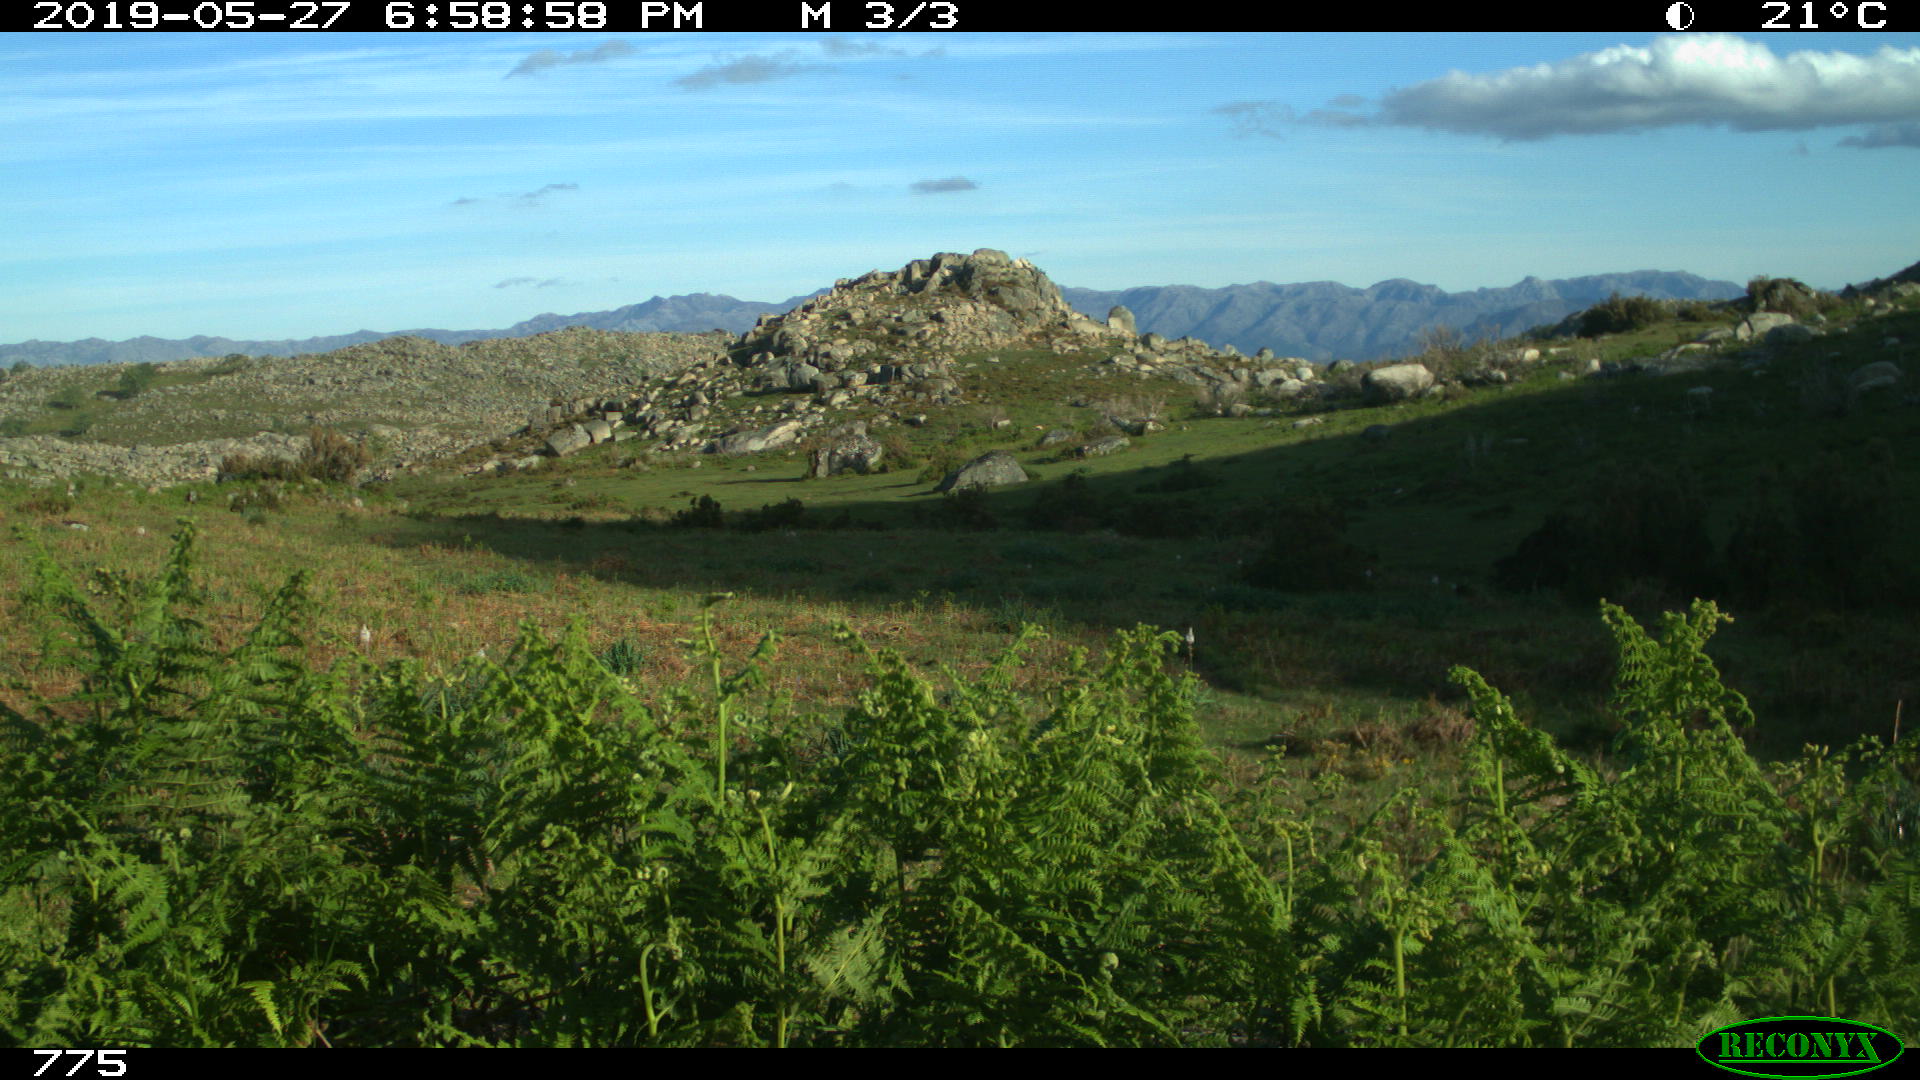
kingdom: Animalia
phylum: Chordata
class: Mammalia
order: Artiodactyla
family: Bovidae
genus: Bos
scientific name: Bos taurus
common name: Domesticated cattle
